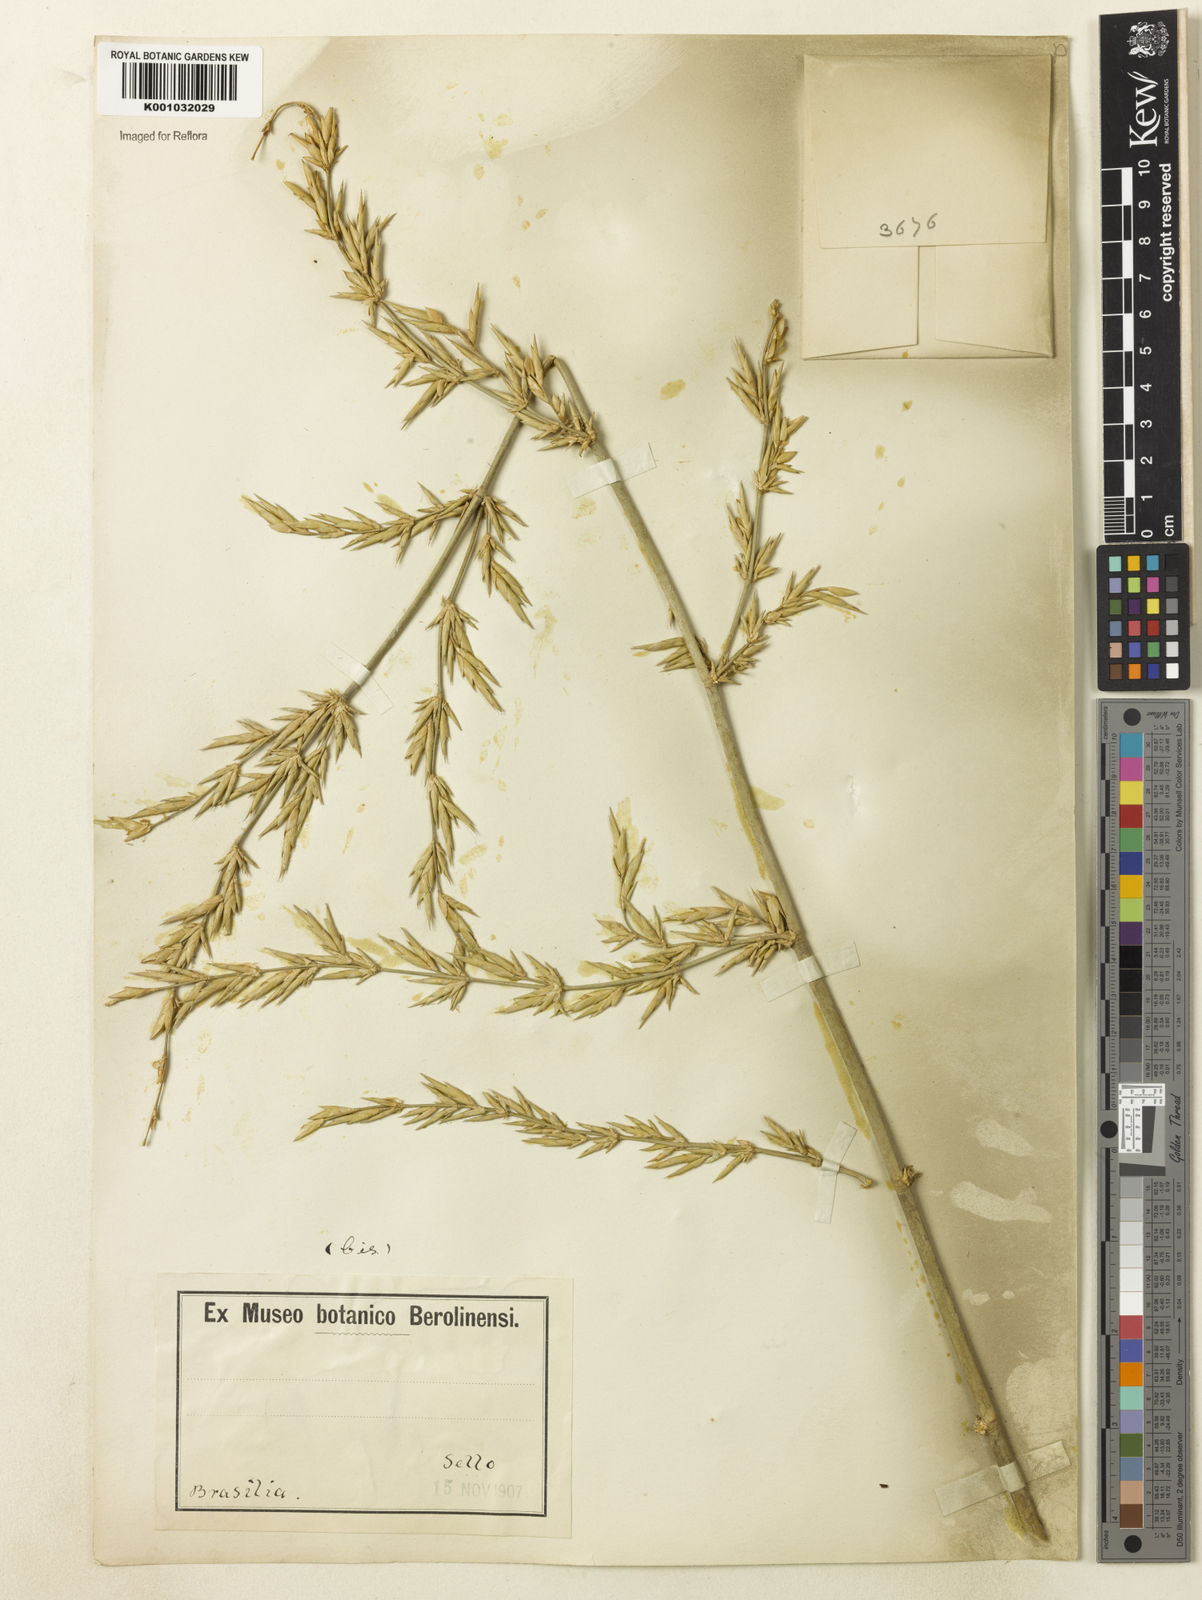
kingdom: Plantae
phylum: Tracheophyta
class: Liliopsida
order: Poales
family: Poaceae
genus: Bambusa
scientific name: Bambusa vulgaris
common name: Common bamboo
